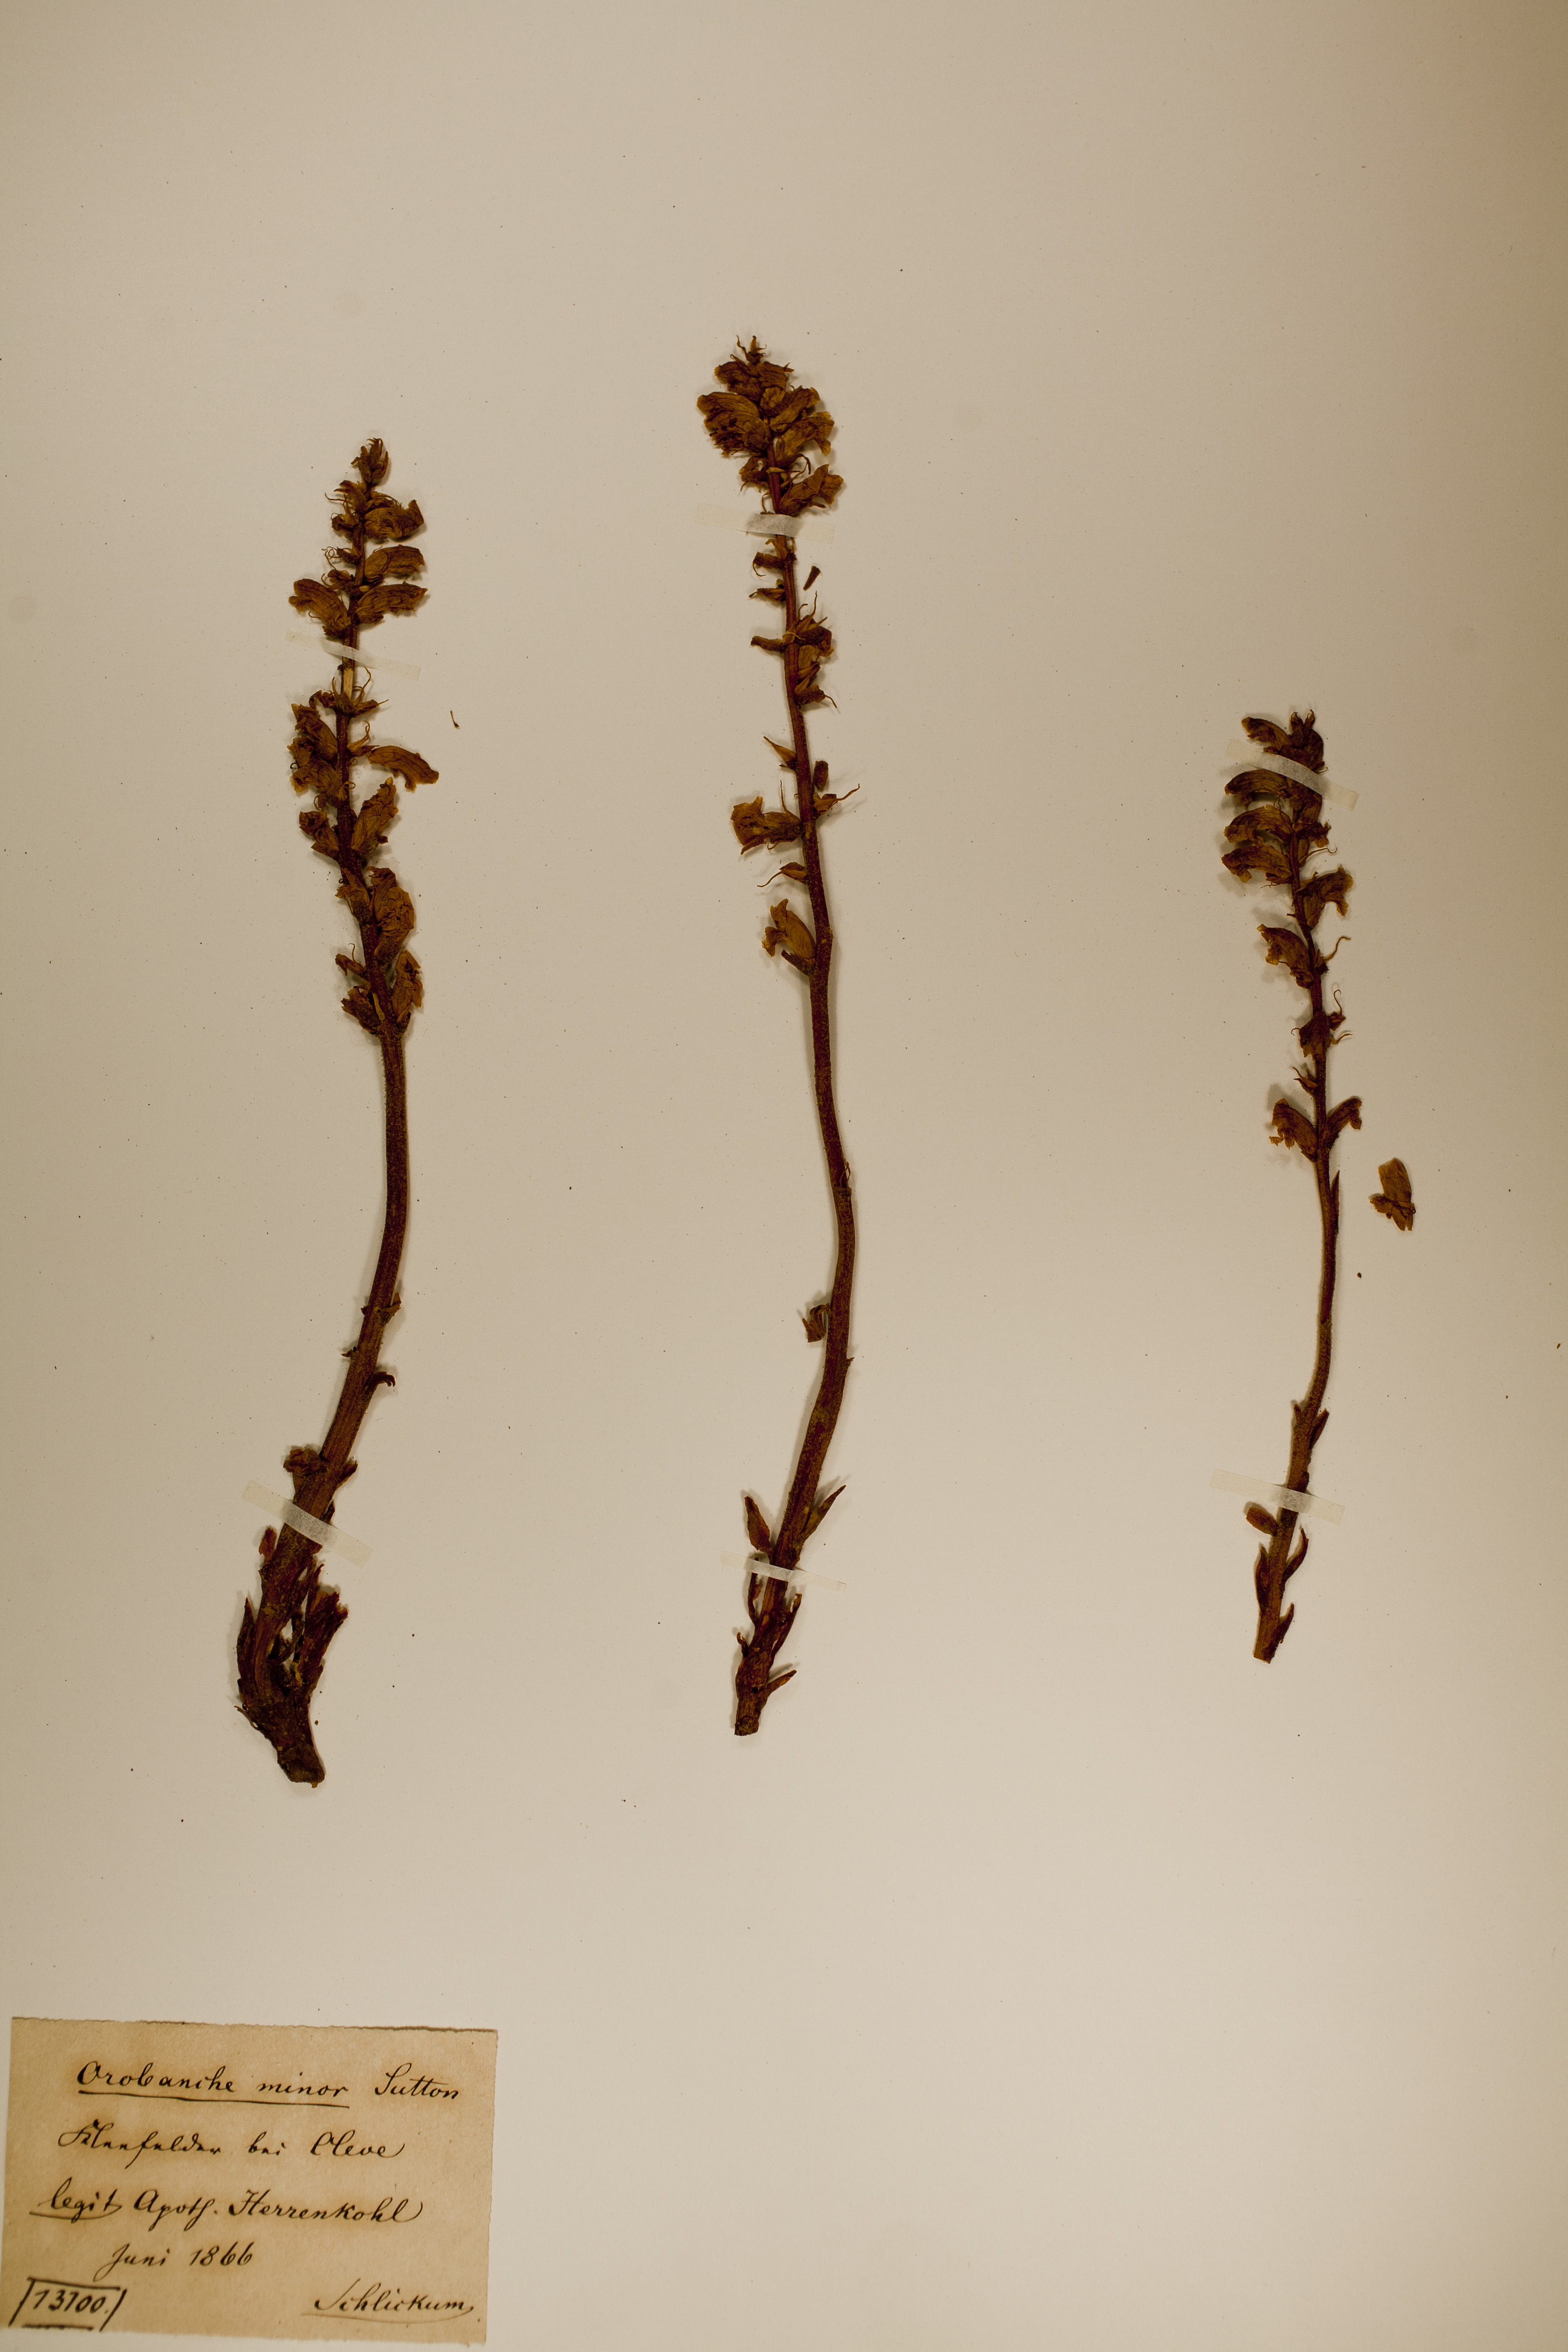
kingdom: Plantae
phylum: Tracheophyta
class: Magnoliopsida
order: Lamiales
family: Orobanchaceae
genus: Orobanche
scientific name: Orobanche minor
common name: Common broomrape
